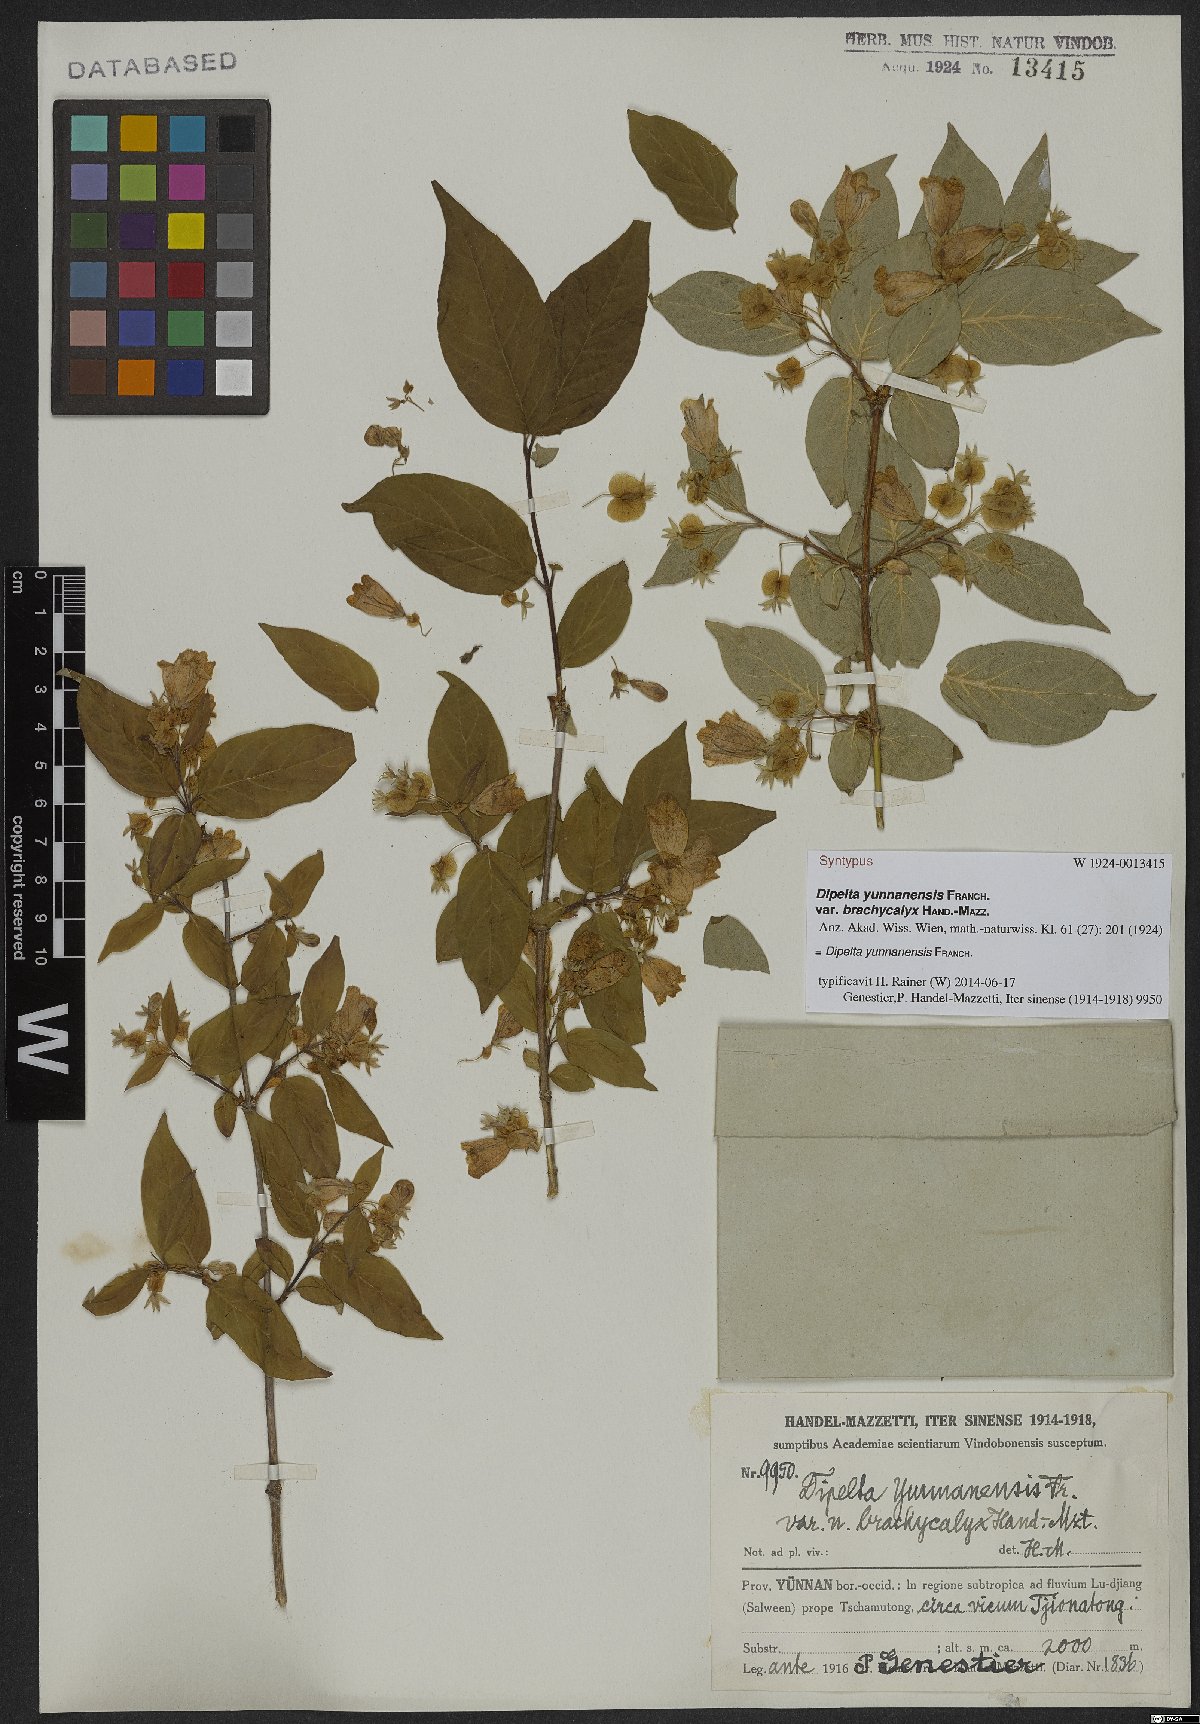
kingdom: Plantae
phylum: Tracheophyta
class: Magnoliopsida
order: Dipsacales
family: Caprifoliaceae
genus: Dipelta
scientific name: Dipelta yunnanensis
